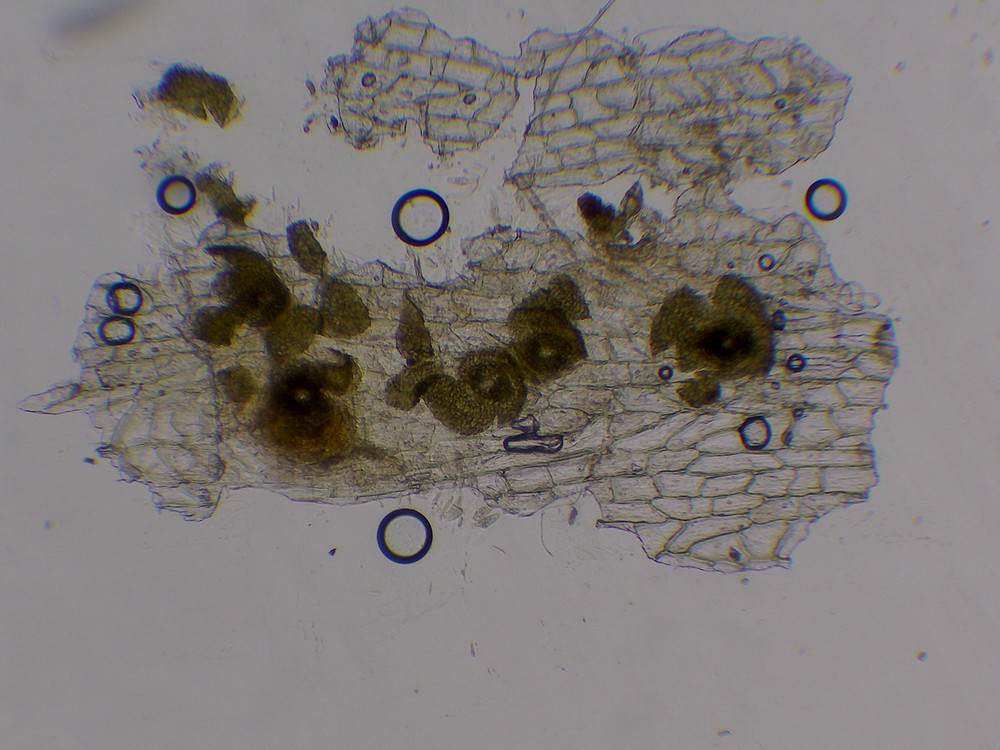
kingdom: Fungi
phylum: Ascomycota
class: Dothideomycetes
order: Microthyriales
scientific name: Microthyriales
